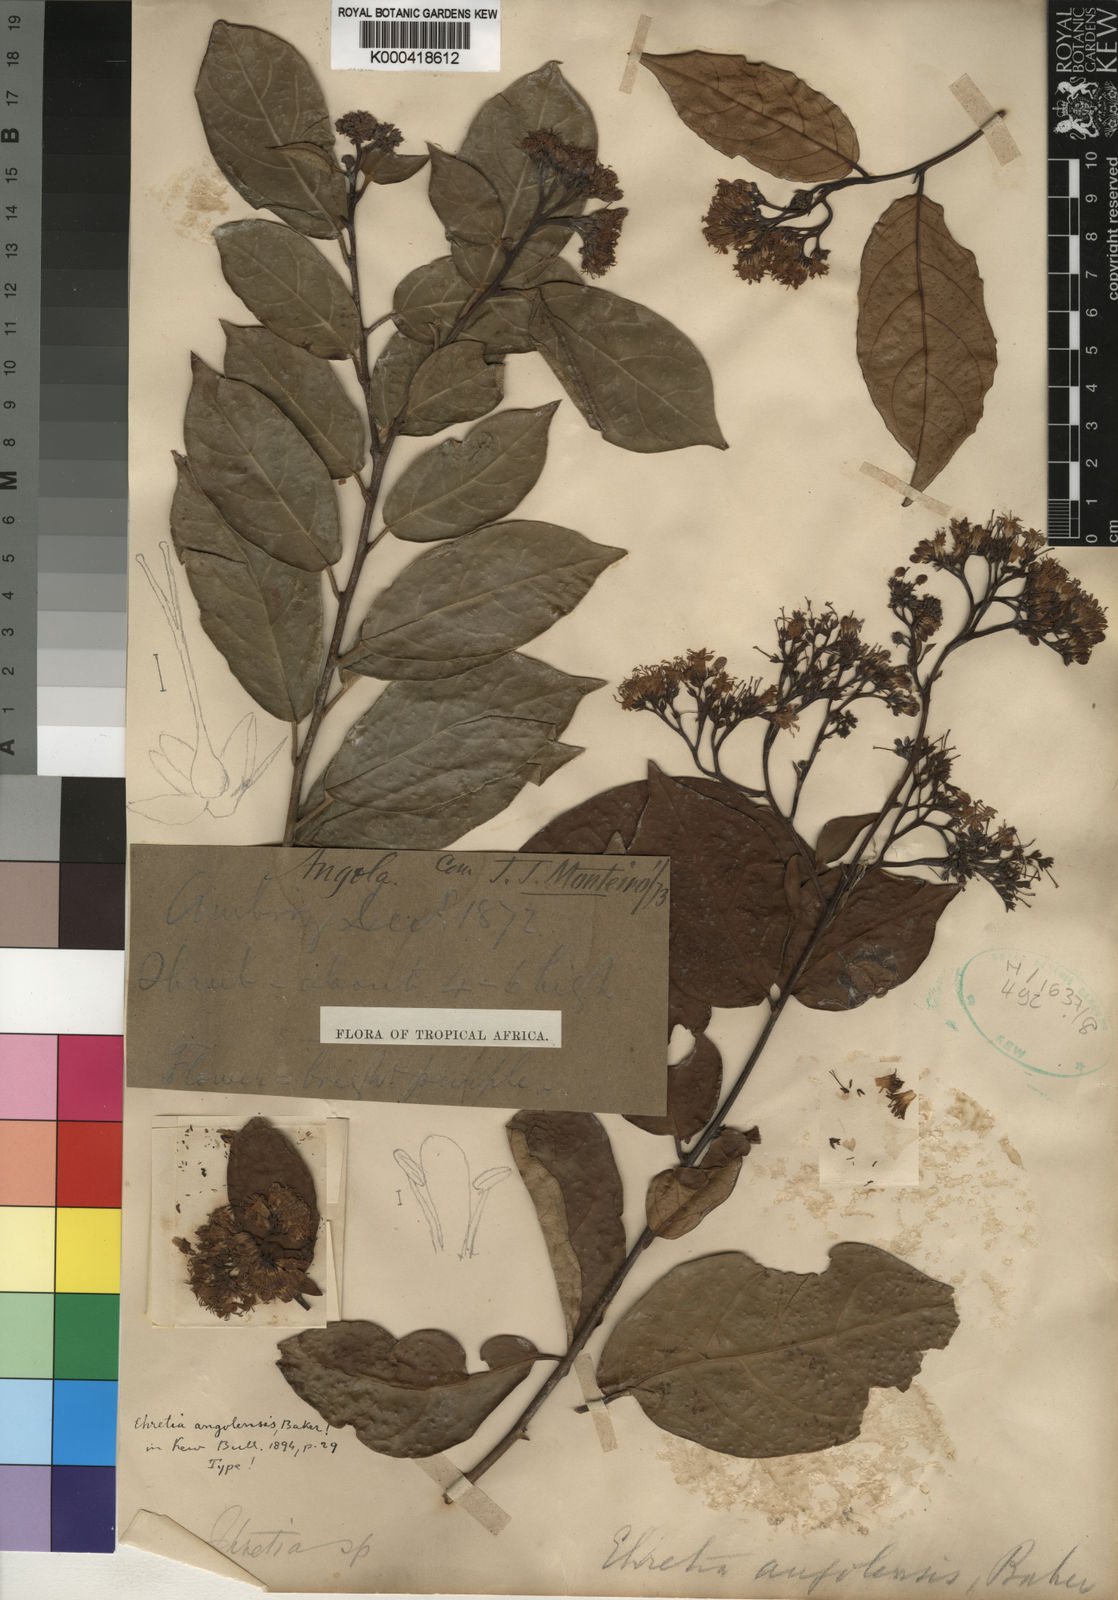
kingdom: Plantae
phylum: Tracheophyta
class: Magnoliopsida
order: Boraginales
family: Ehretiaceae
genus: Ehretia
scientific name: Ehretia angolensis
